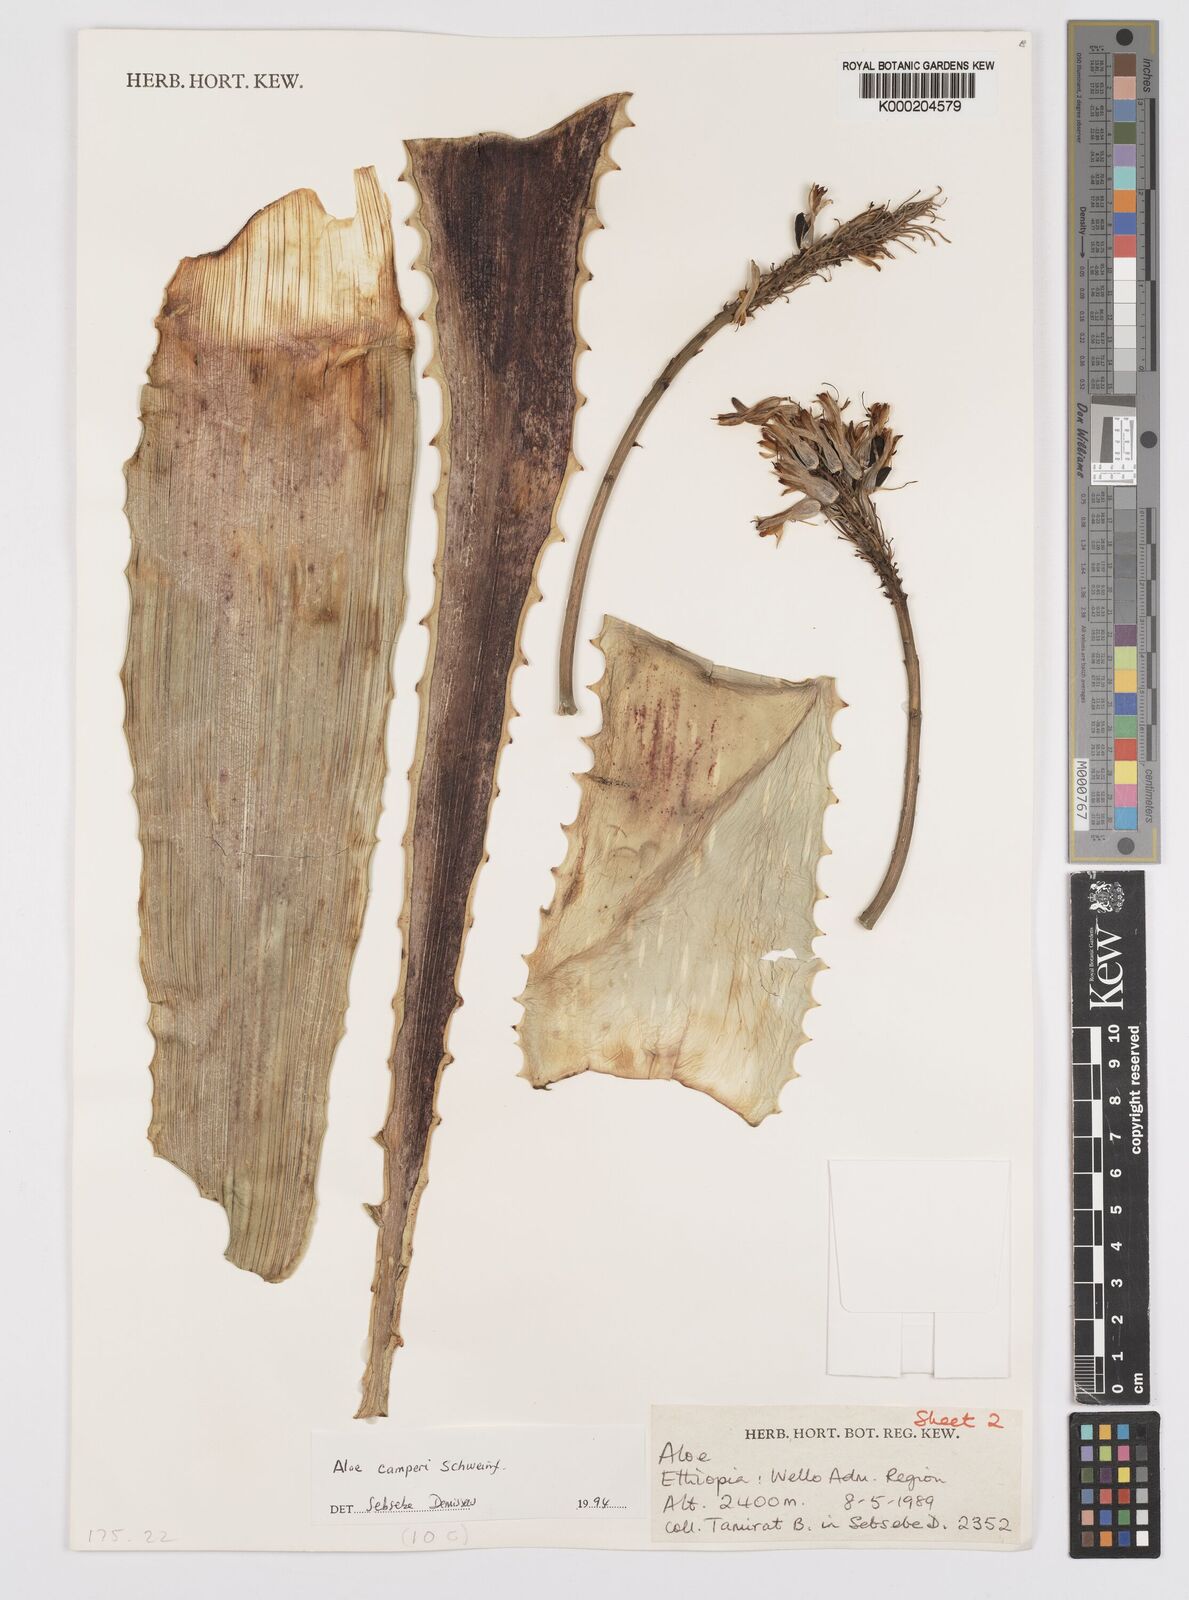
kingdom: Plantae
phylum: Tracheophyta
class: Liliopsida
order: Asparagales
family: Asphodelaceae
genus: Aloe
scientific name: Aloe camperi
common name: Camper's aloe
